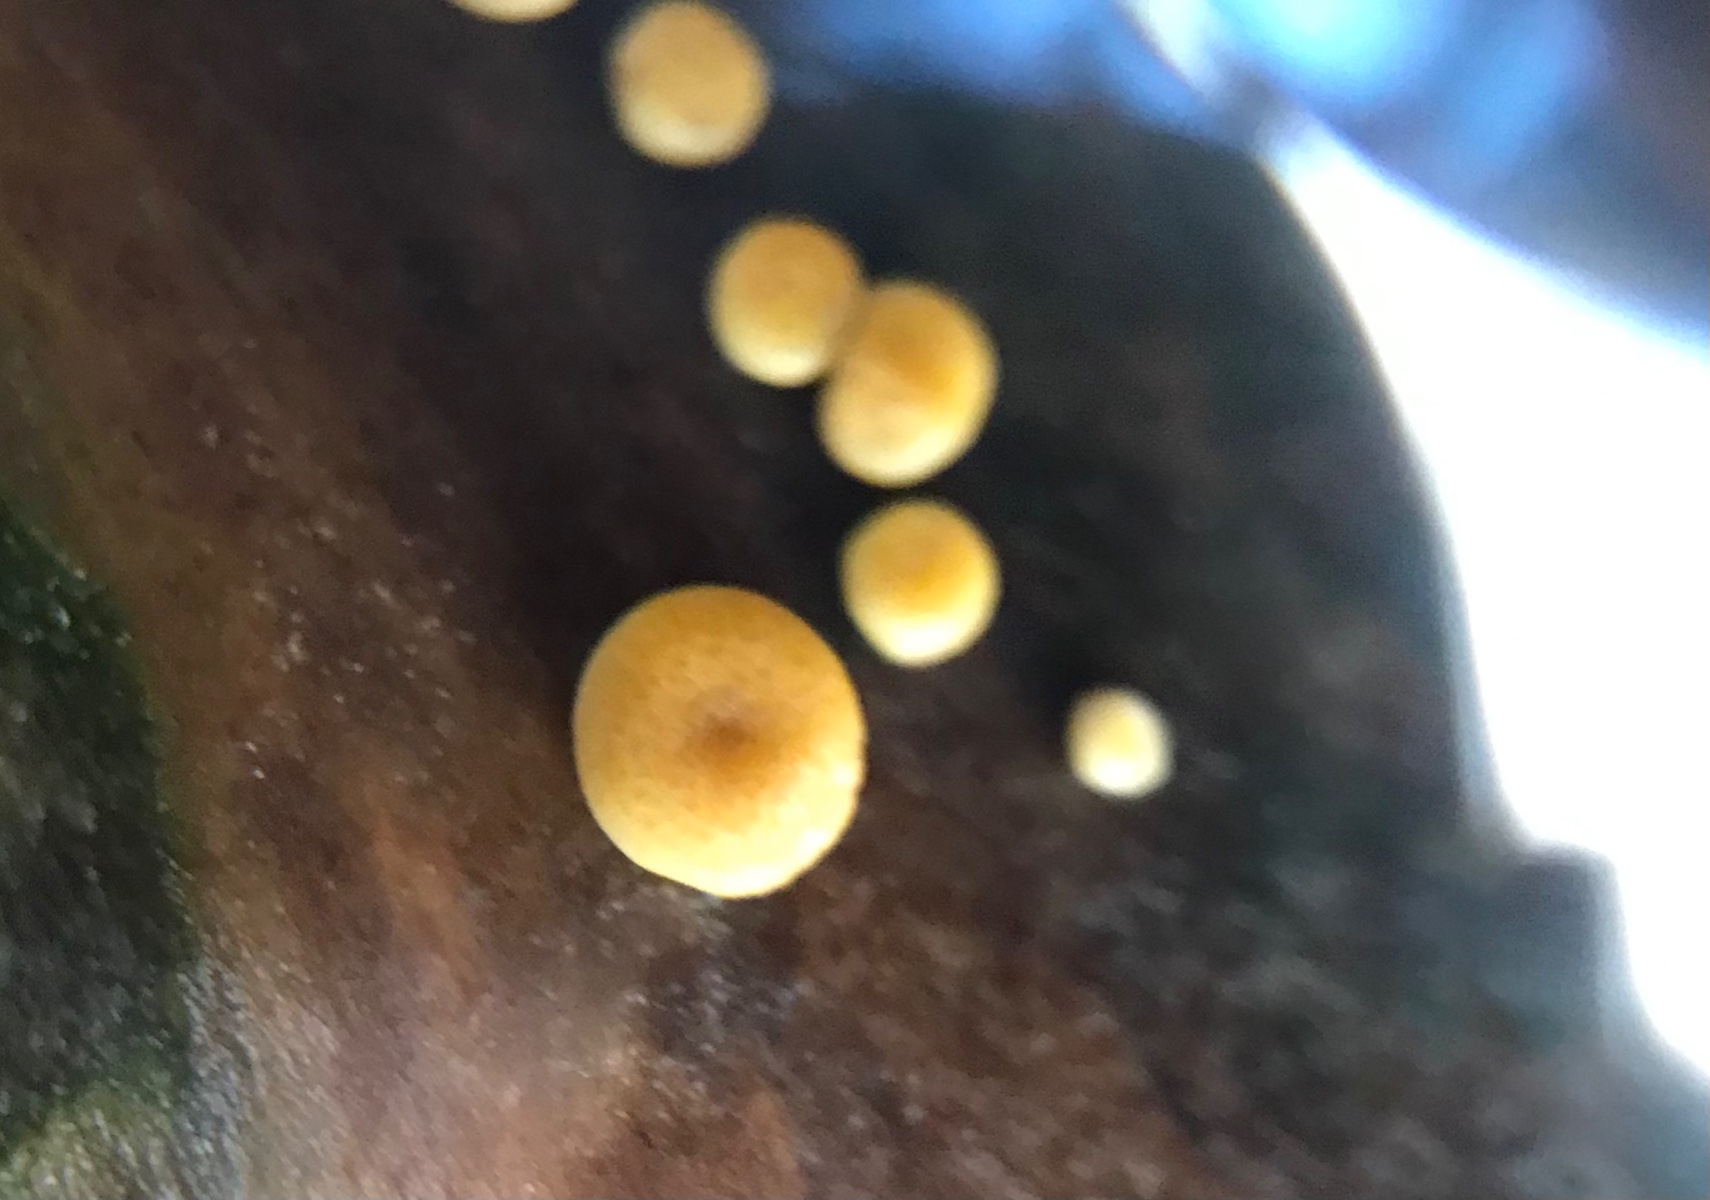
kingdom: Fungi
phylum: Ascomycota
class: Sordariomycetes
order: Hypocreales
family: Hypocreaceae
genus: Trichoderma
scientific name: Trichoderma aureoviride
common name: æggegul kødkerne
